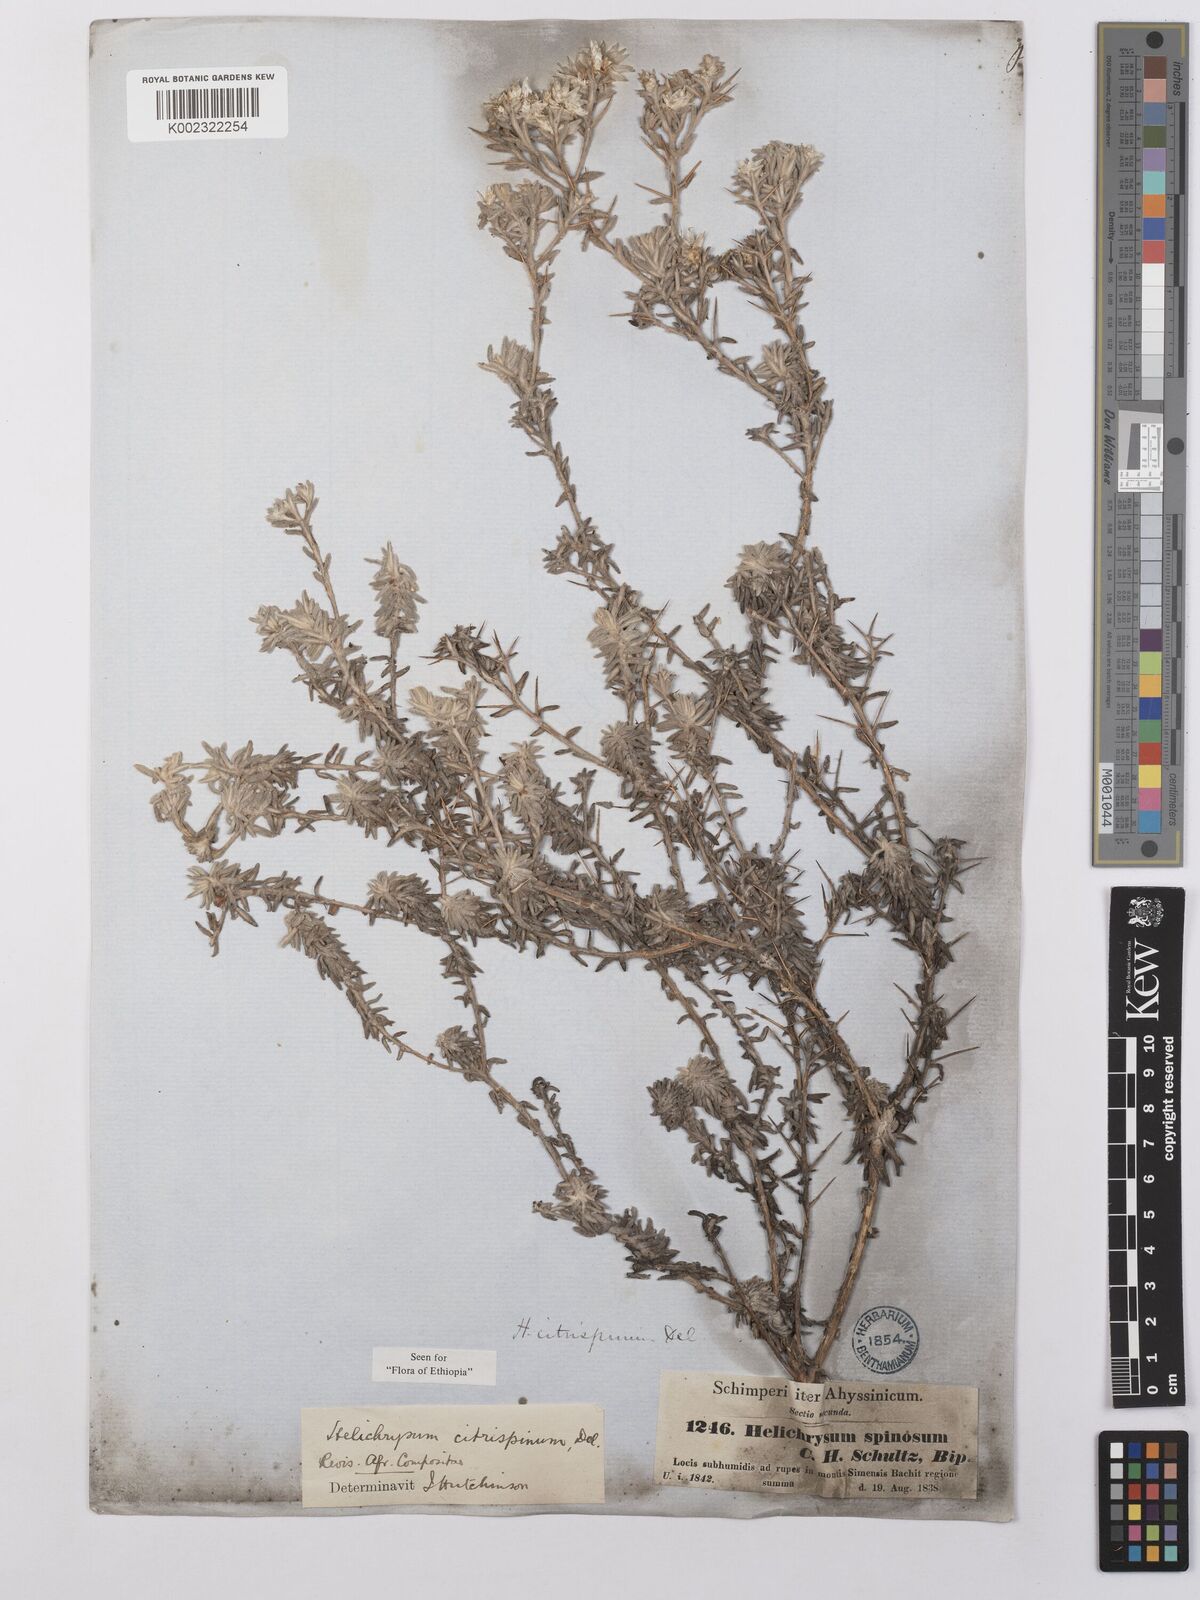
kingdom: Plantae
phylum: Tracheophyta
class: Magnoliopsida
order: Asterales
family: Asteraceae
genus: Helichrysum
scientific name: Helichrysum citrispinum
